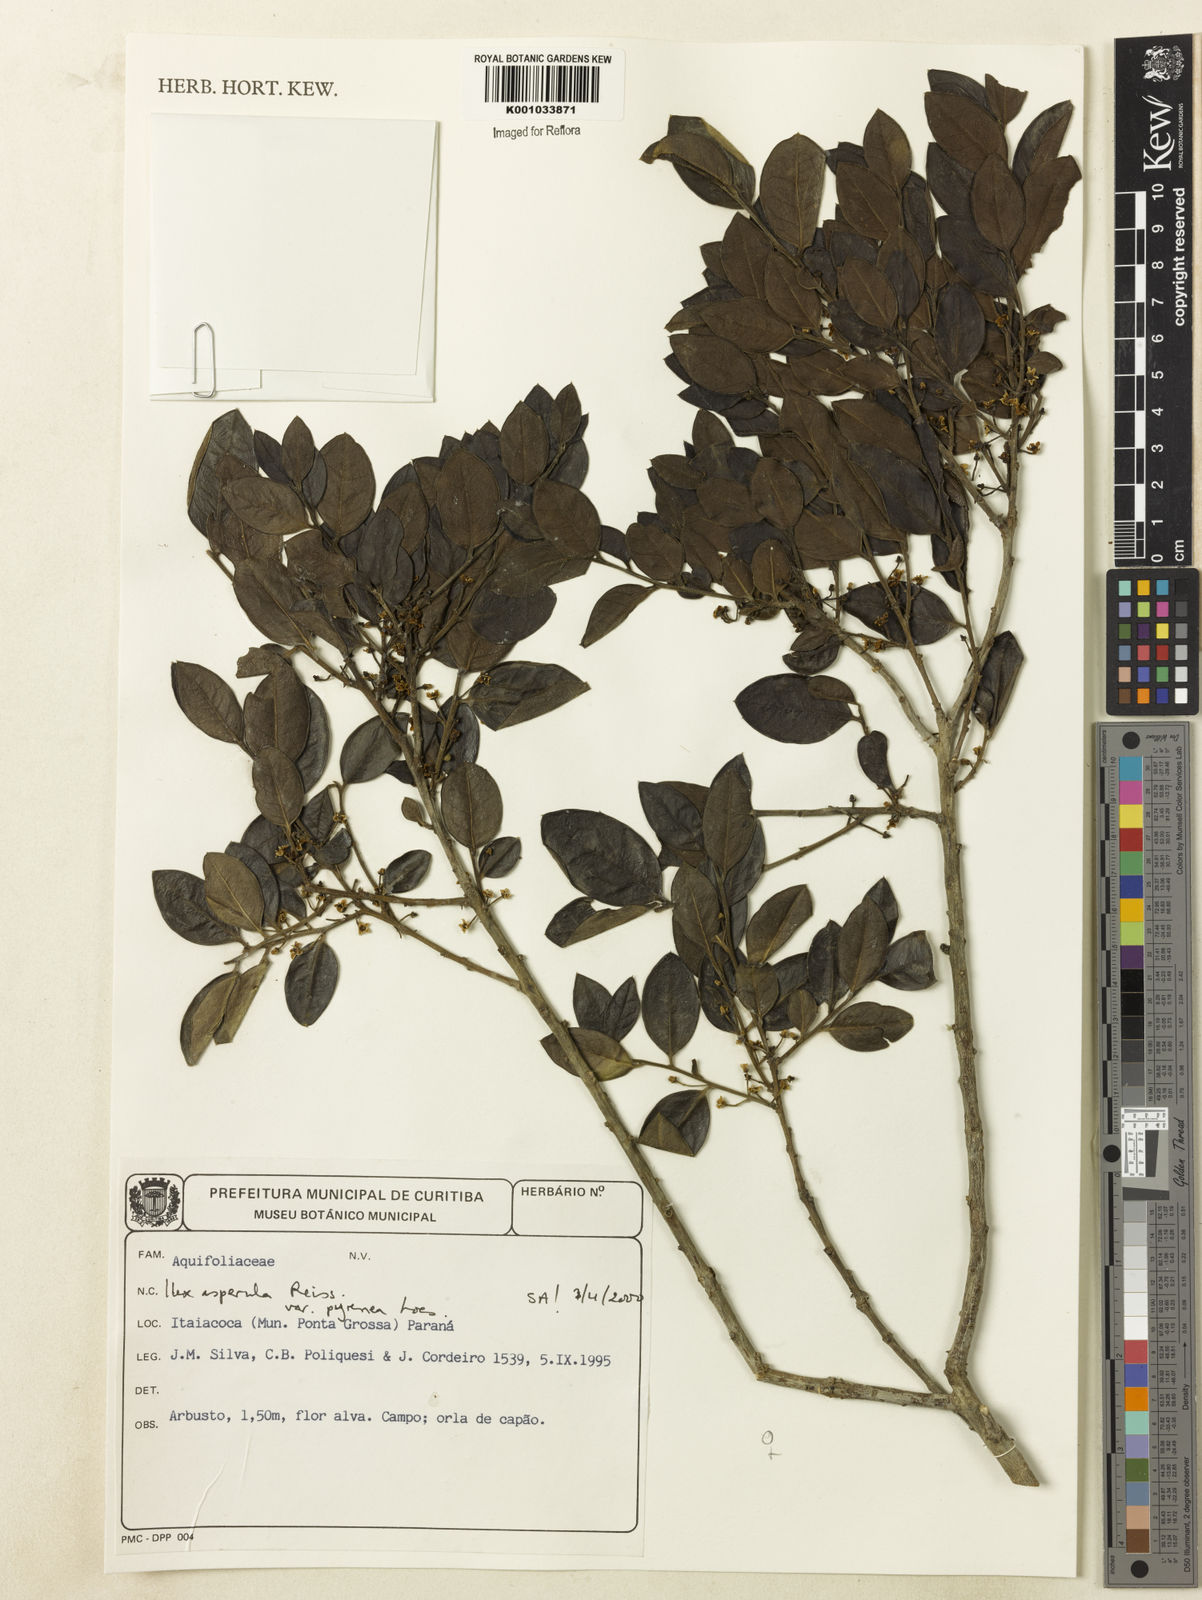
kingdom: Plantae
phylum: Tracheophyta
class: Magnoliopsida
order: Aquifoliales
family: Aquifoliaceae
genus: Ilex
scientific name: Ilex asperula
